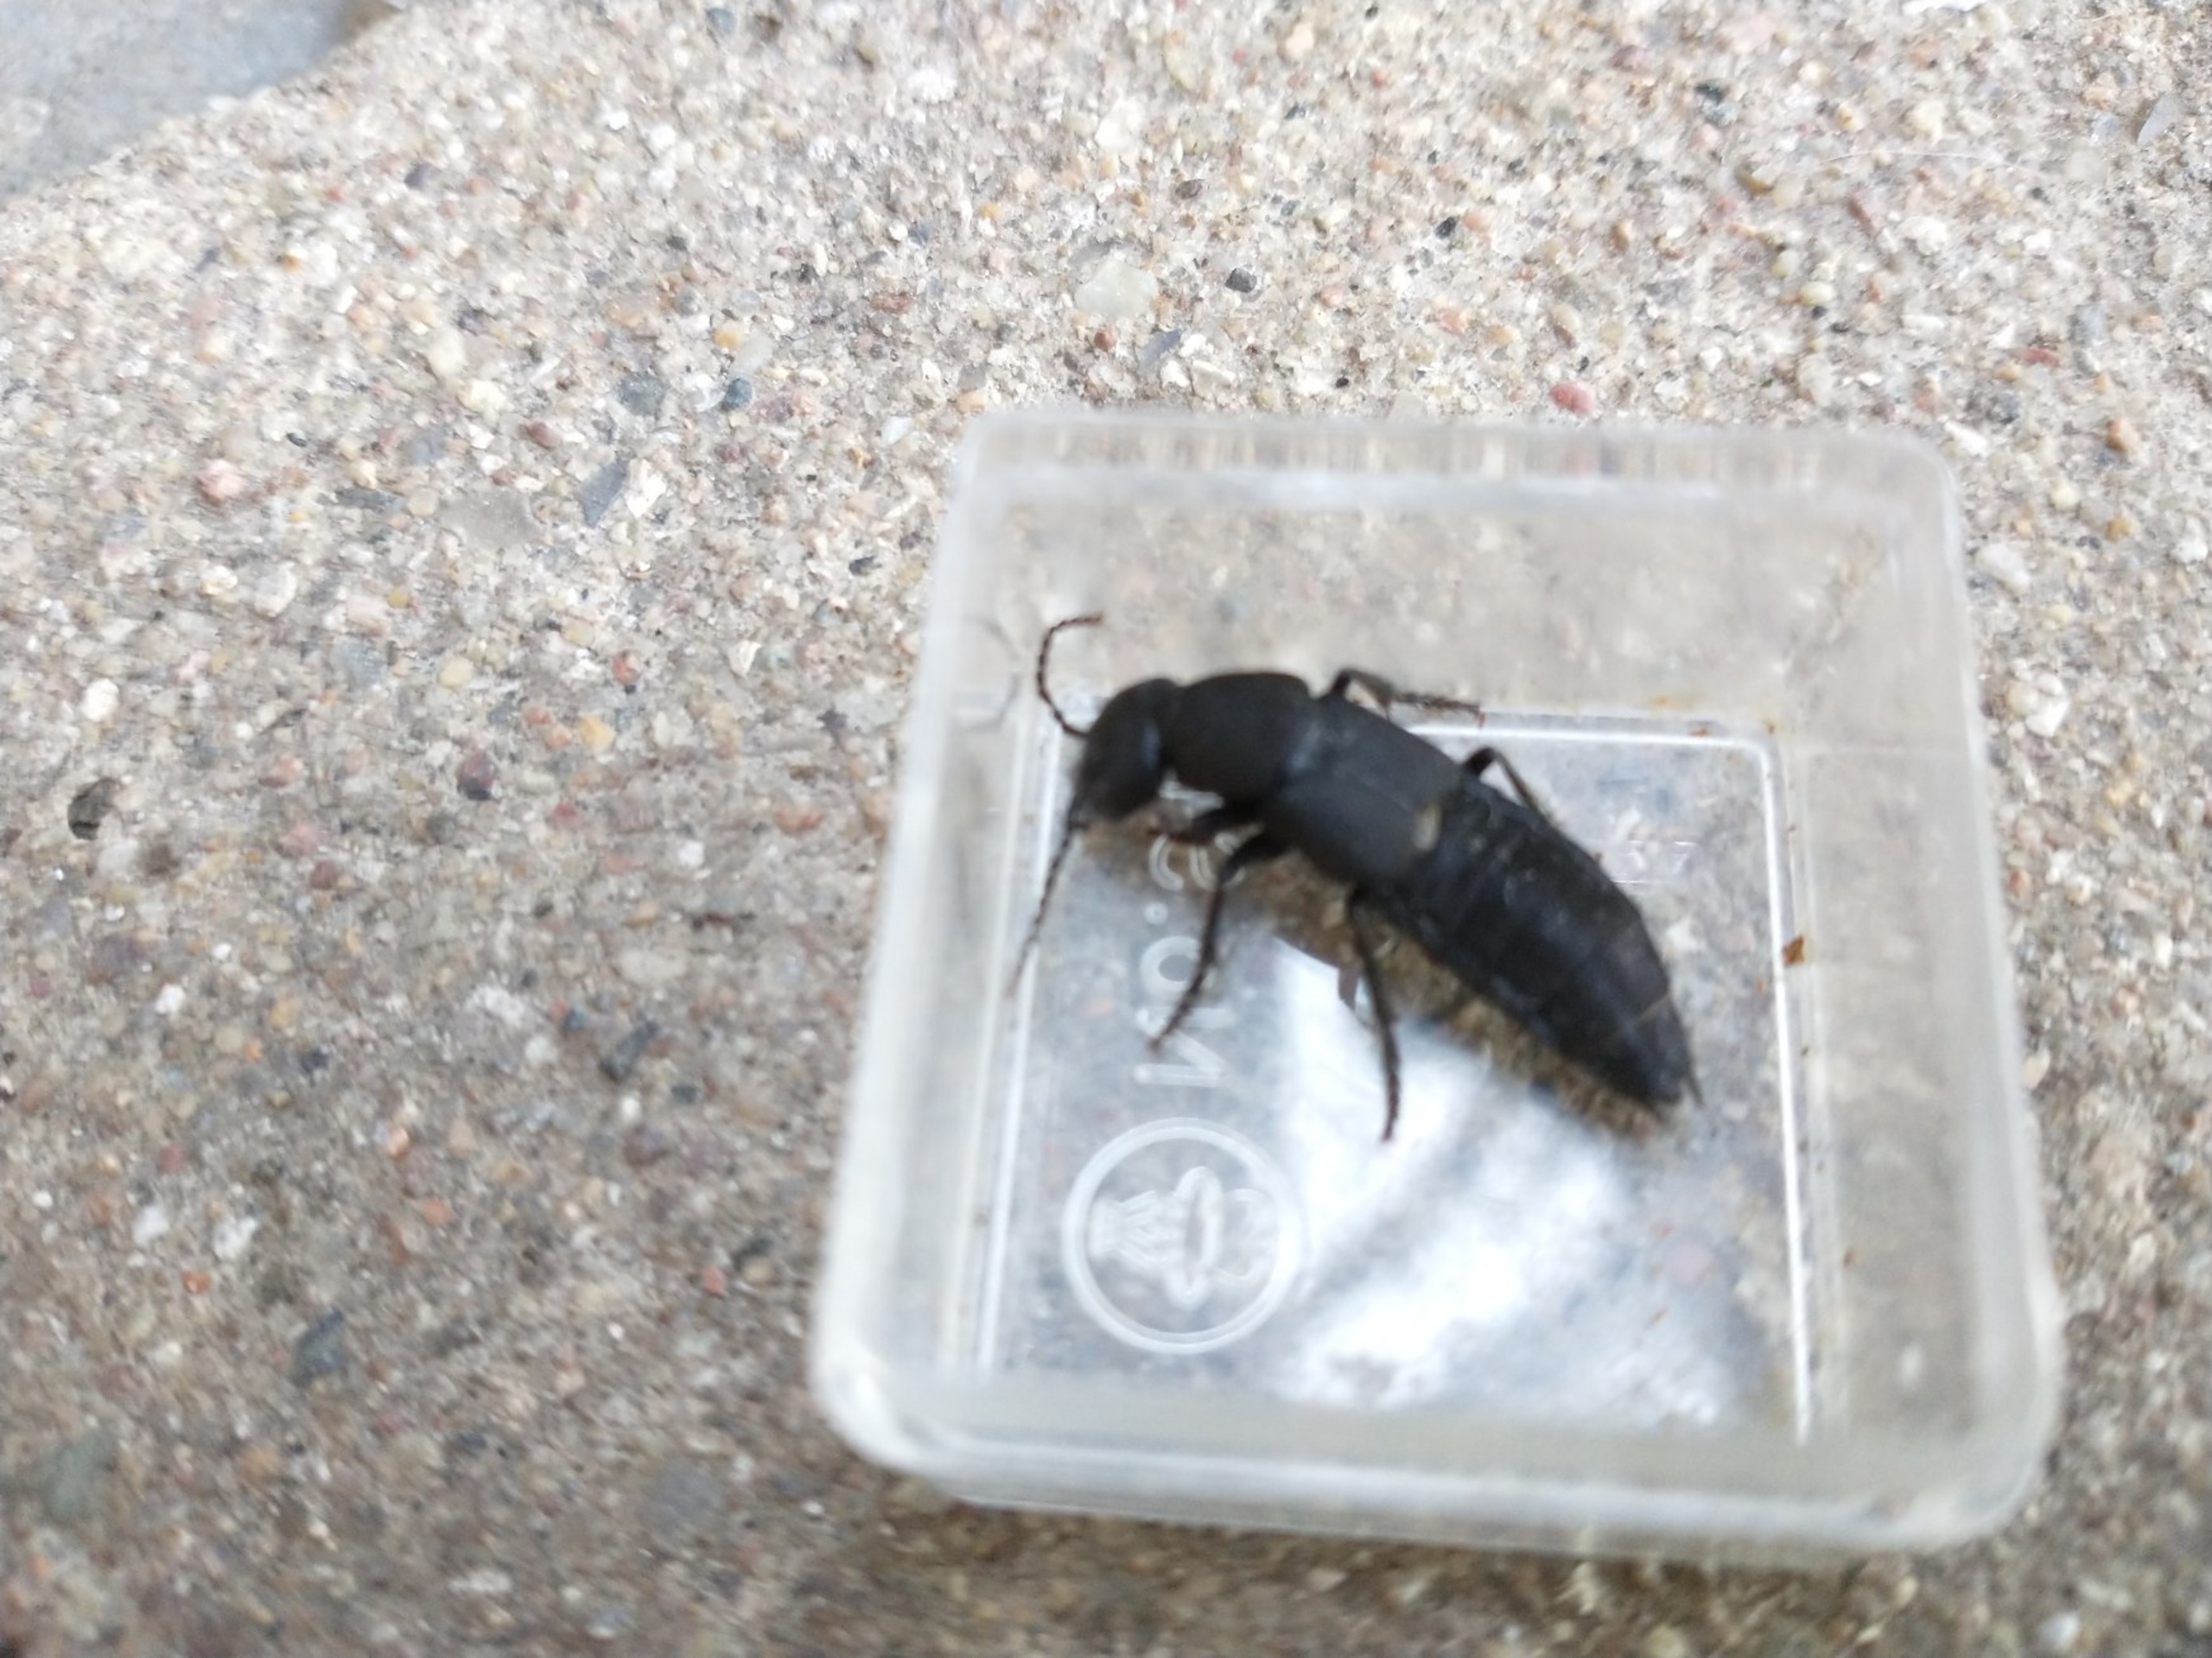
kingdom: Animalia
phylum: Arthropoda
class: Insecta
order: Coleoptera
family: Staphylinidae
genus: Ocypus
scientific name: Ocypus olens
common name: Stor rovbille
